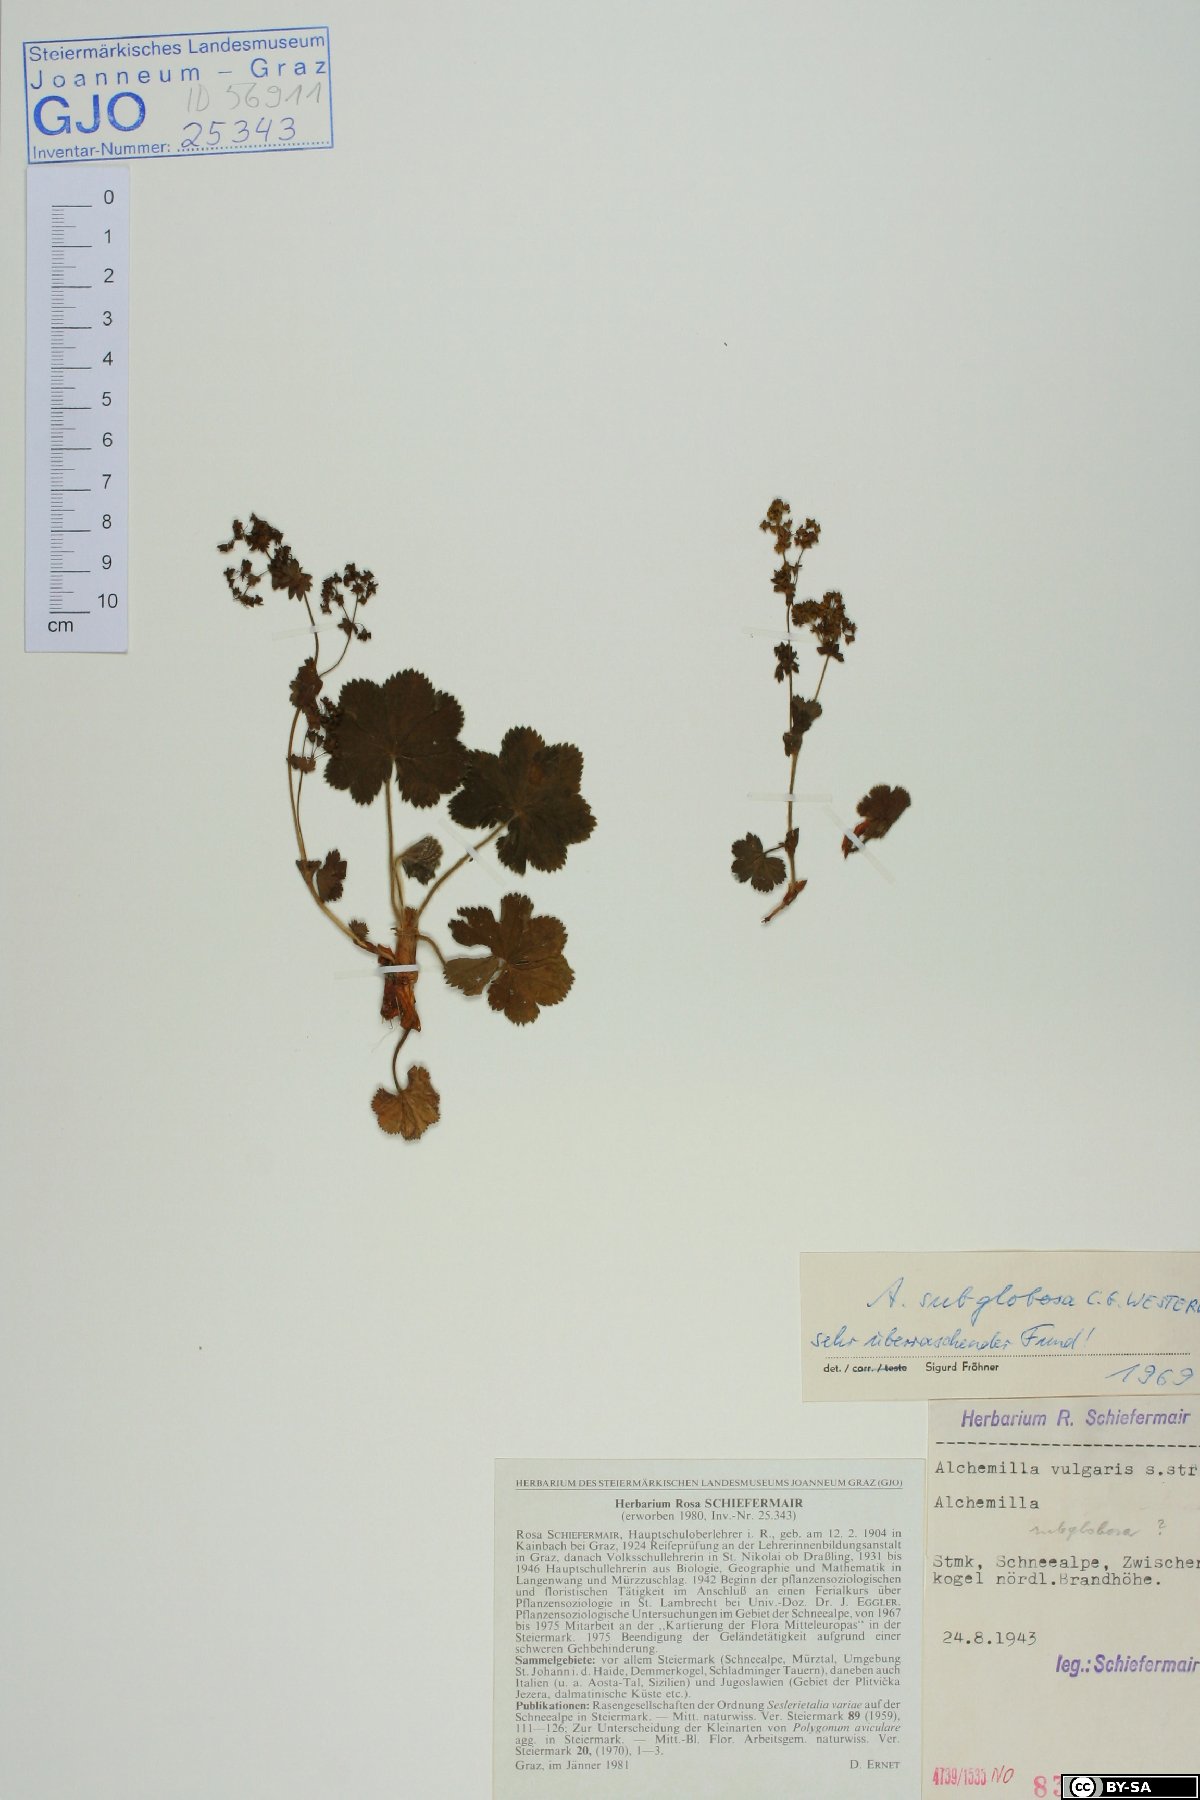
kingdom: Plantae
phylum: Tracheophyta
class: Magnoliopsida
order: Rosales
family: Rosaceae
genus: Alchemilla
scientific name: Alchemilla subglobosa
